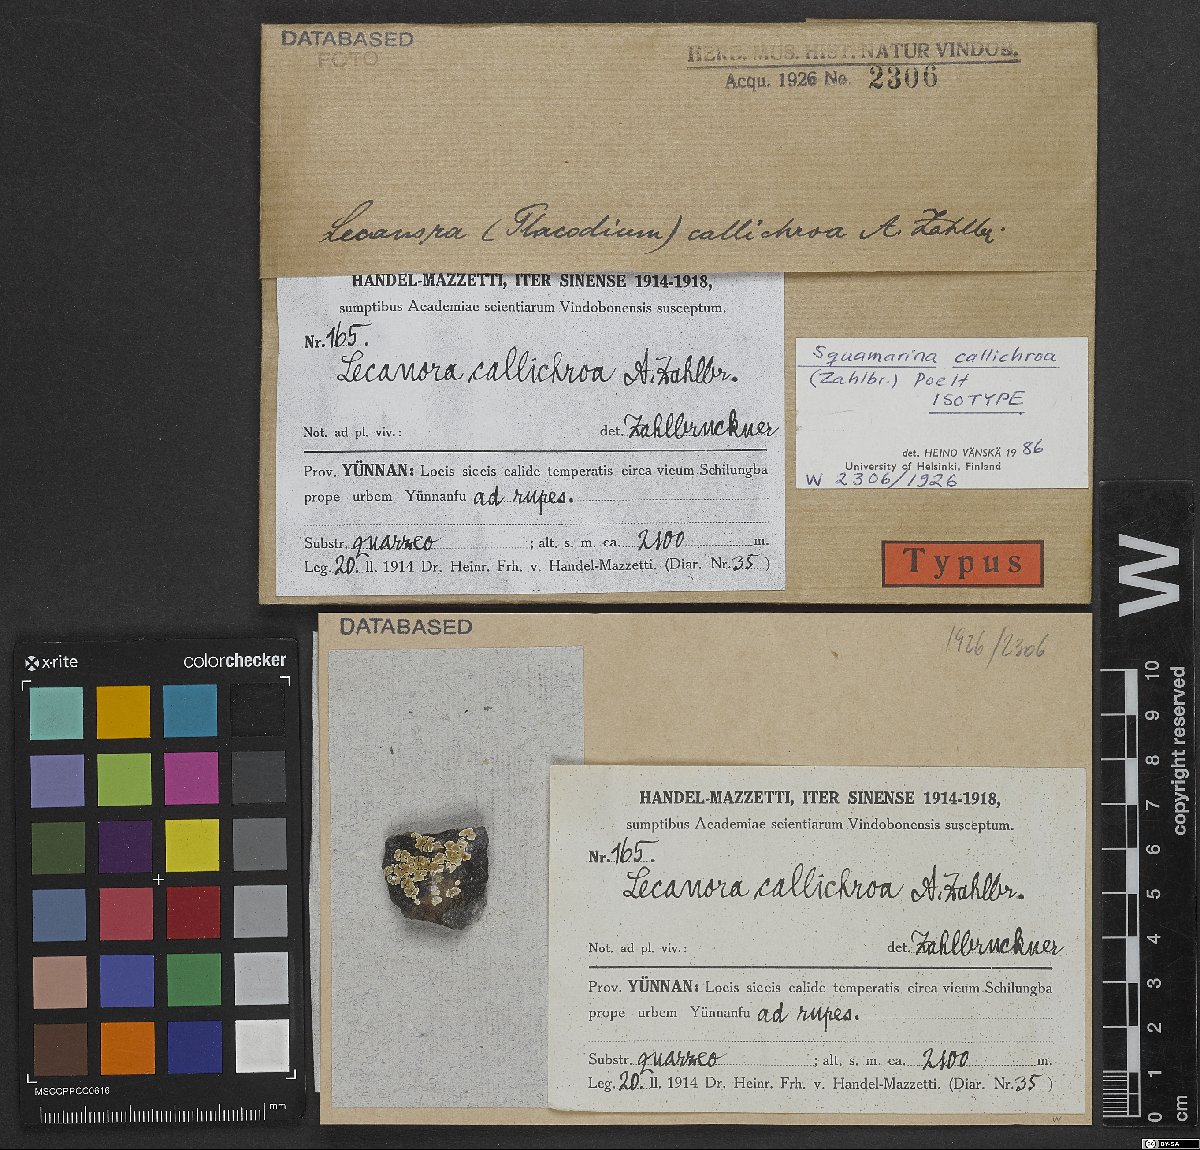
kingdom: Fungi
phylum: Ascomycota
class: Lecanoromycetes
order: Lecanorales
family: Lecanoraceae
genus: Rhizoplaca
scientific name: Rhizoplaca callichroa
